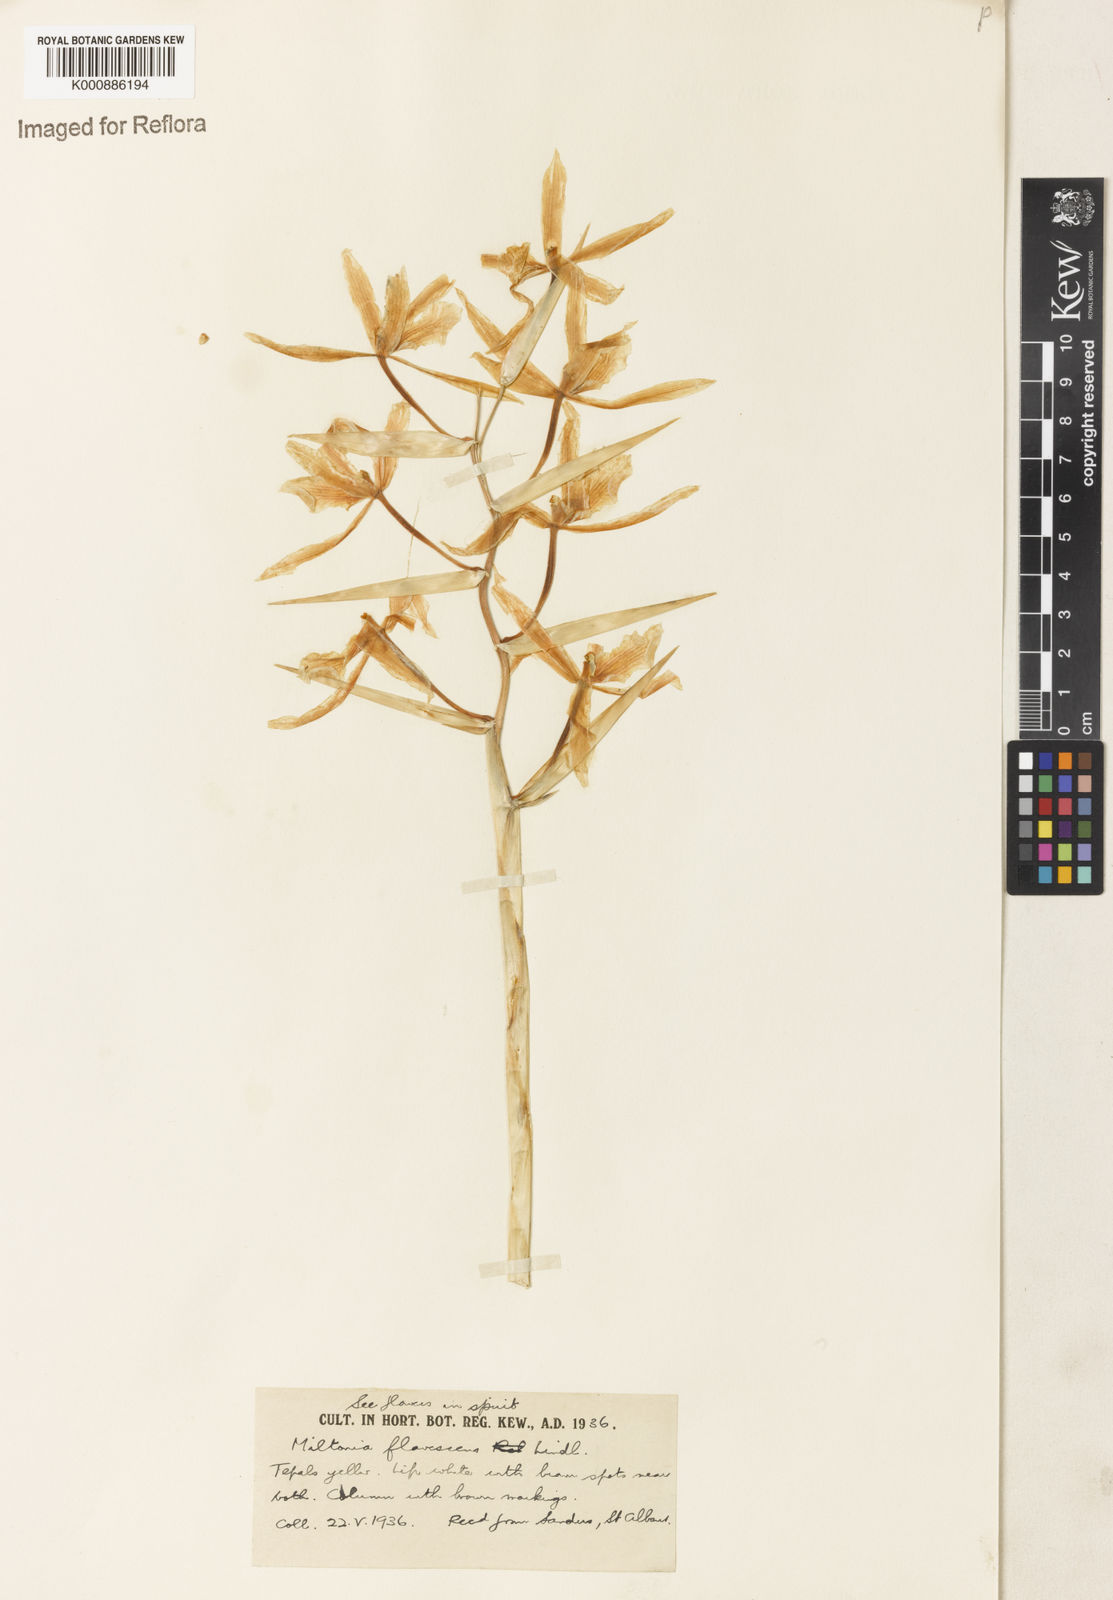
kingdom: Plantae
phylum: Tracheophyta
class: Liliopsida
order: Asparagales
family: Orchidaceae
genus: Miltonia
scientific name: Miltonia flavescens
